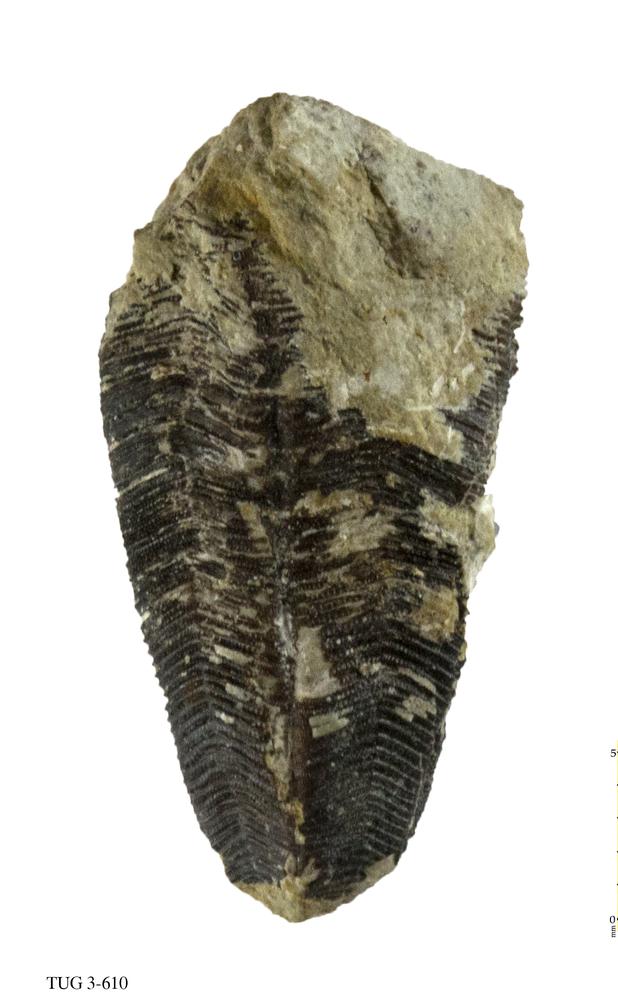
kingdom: Animalia
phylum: Cnidaria
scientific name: Cnidaria
